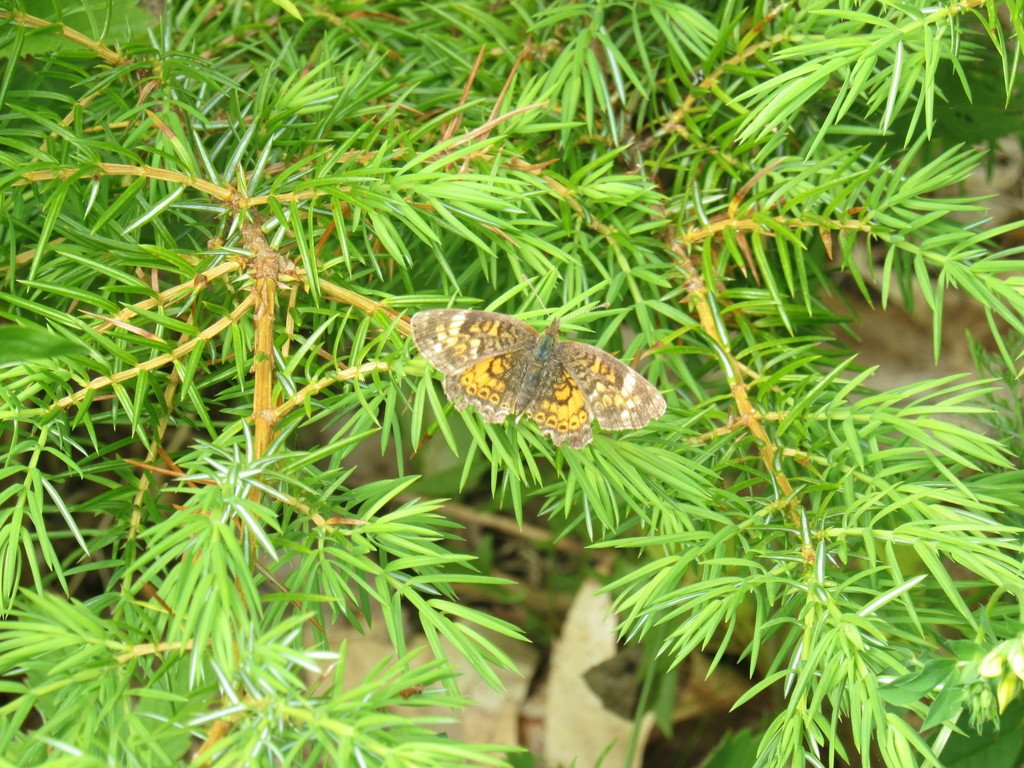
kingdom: Animalia
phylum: Arthropoda
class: Insecta
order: Lepidoptera
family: Nymphalidae
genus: Phyciodes
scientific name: Phyciodes tharos
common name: Northern Crescent
